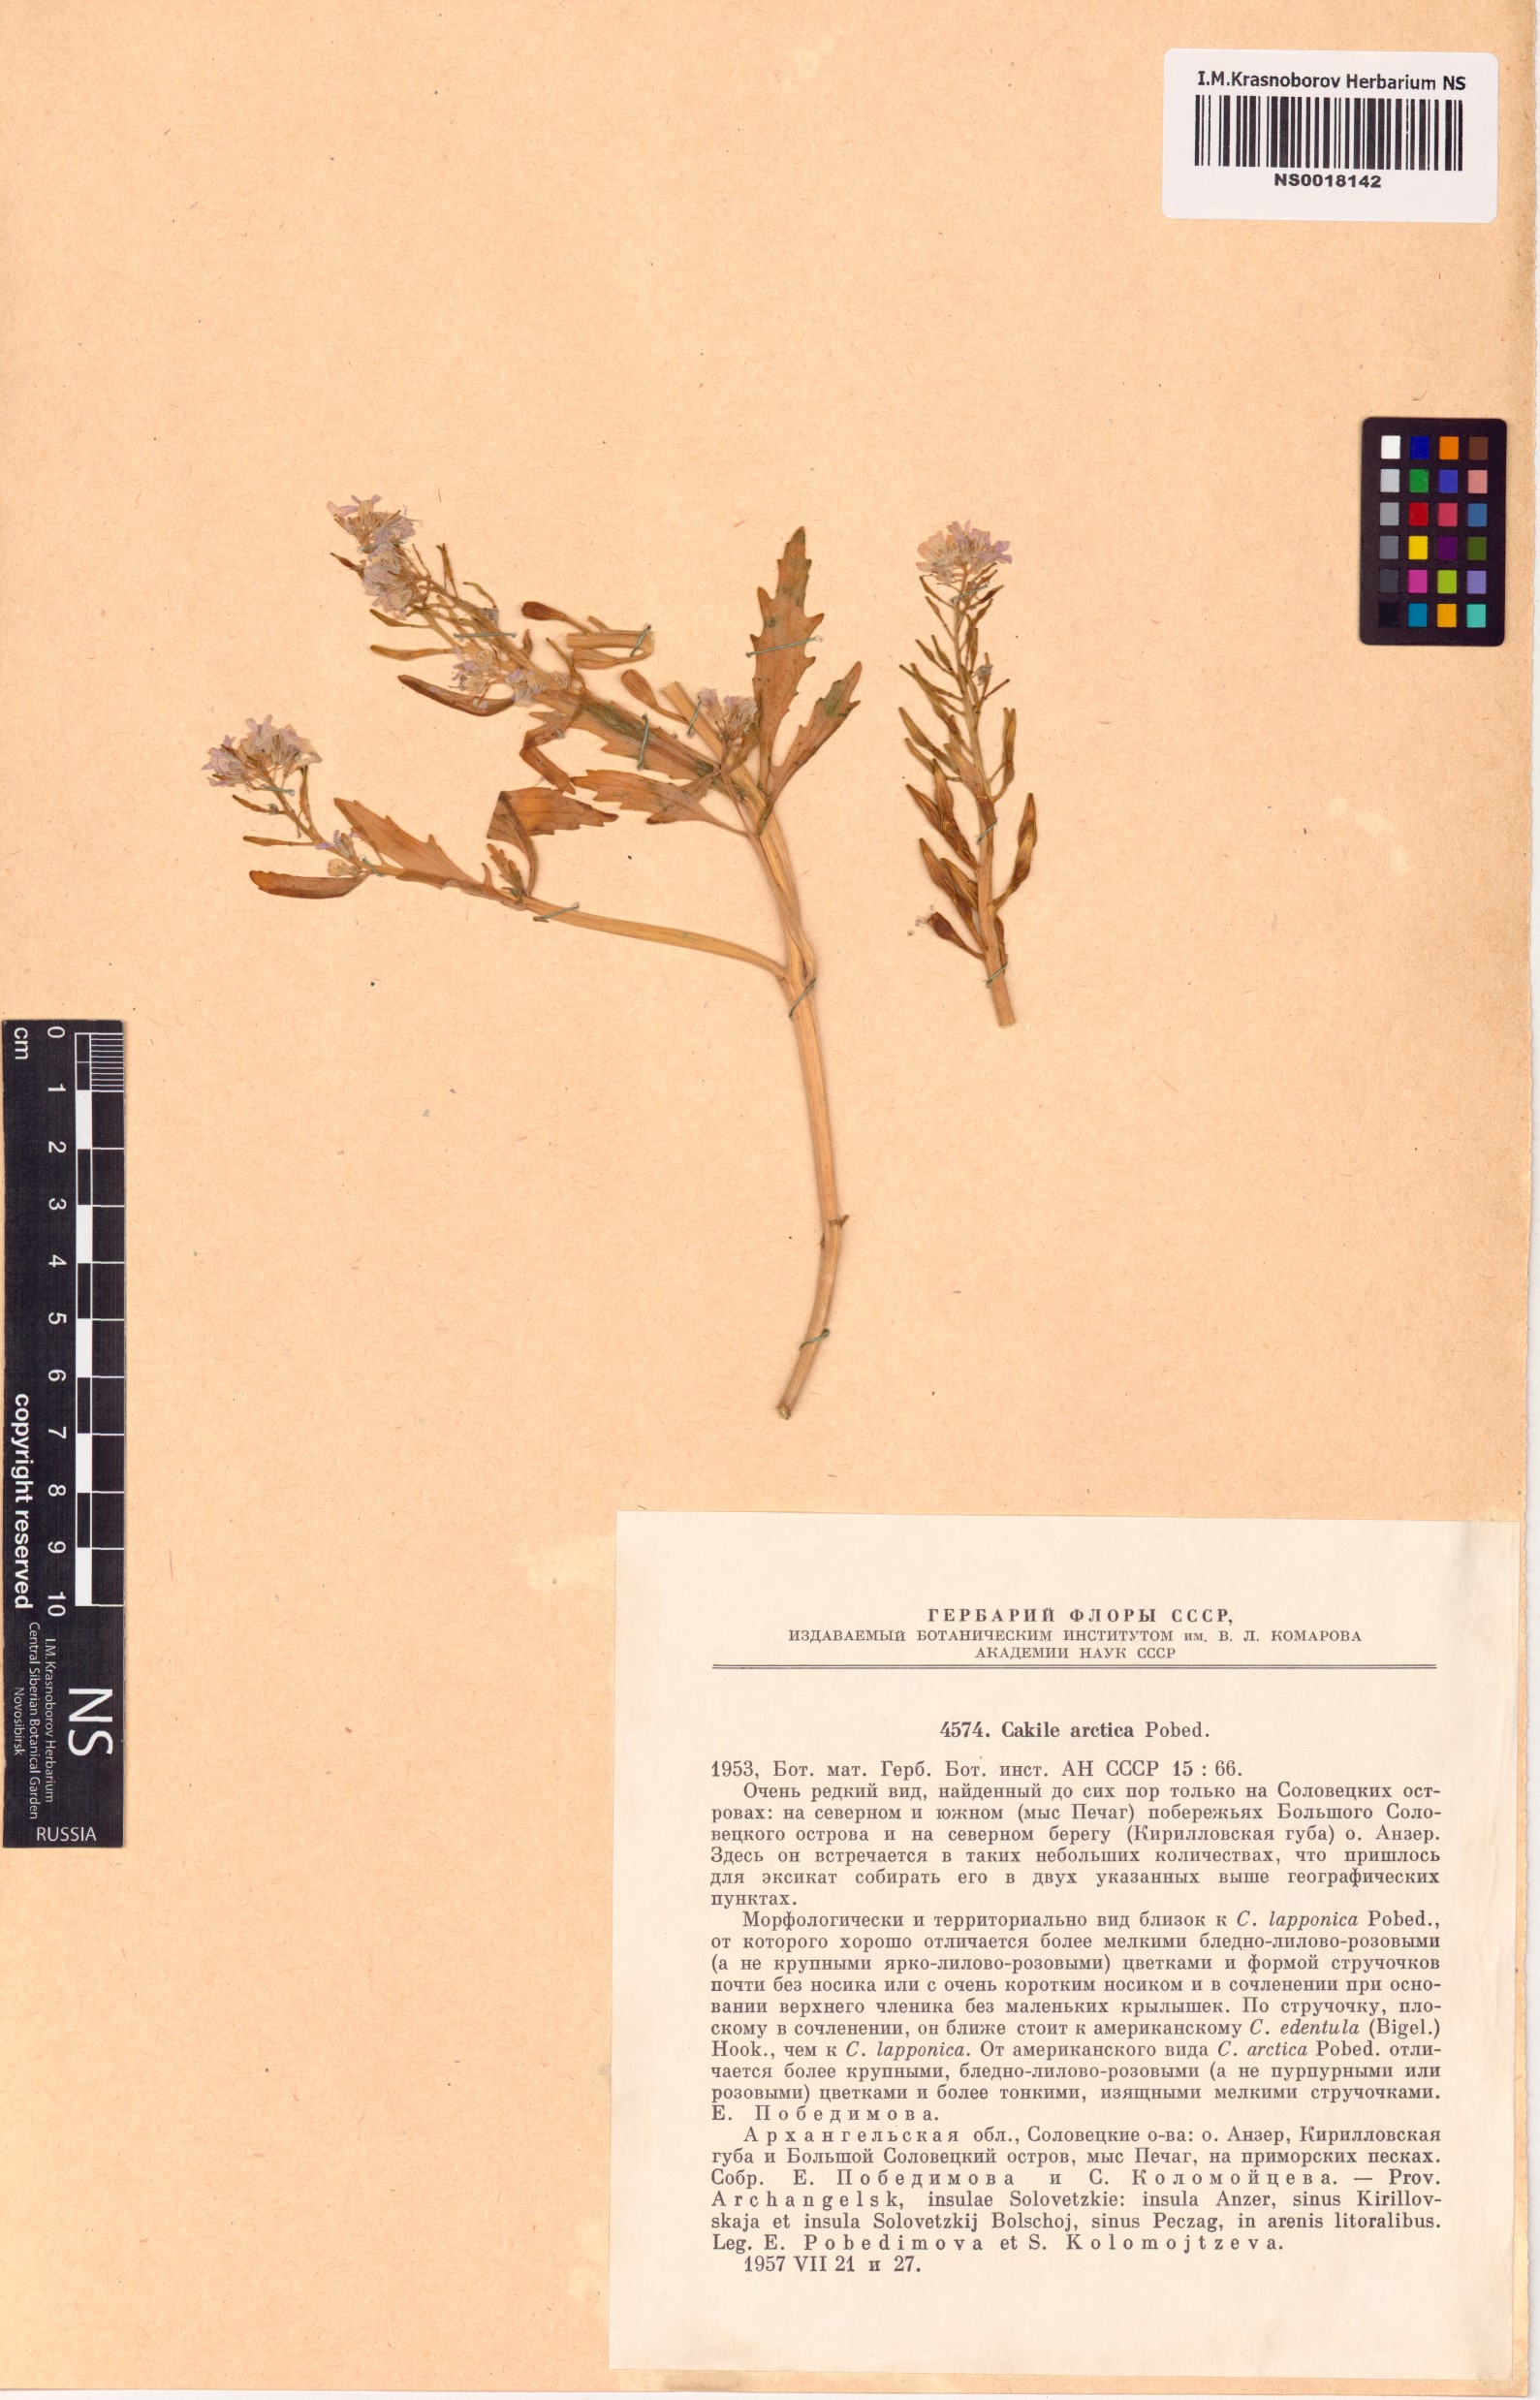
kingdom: Plantae
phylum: Tracheophyta
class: Magnoliopsida
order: Brassicales
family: Brassicaceae
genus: Cakile
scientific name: Cakile arctica
